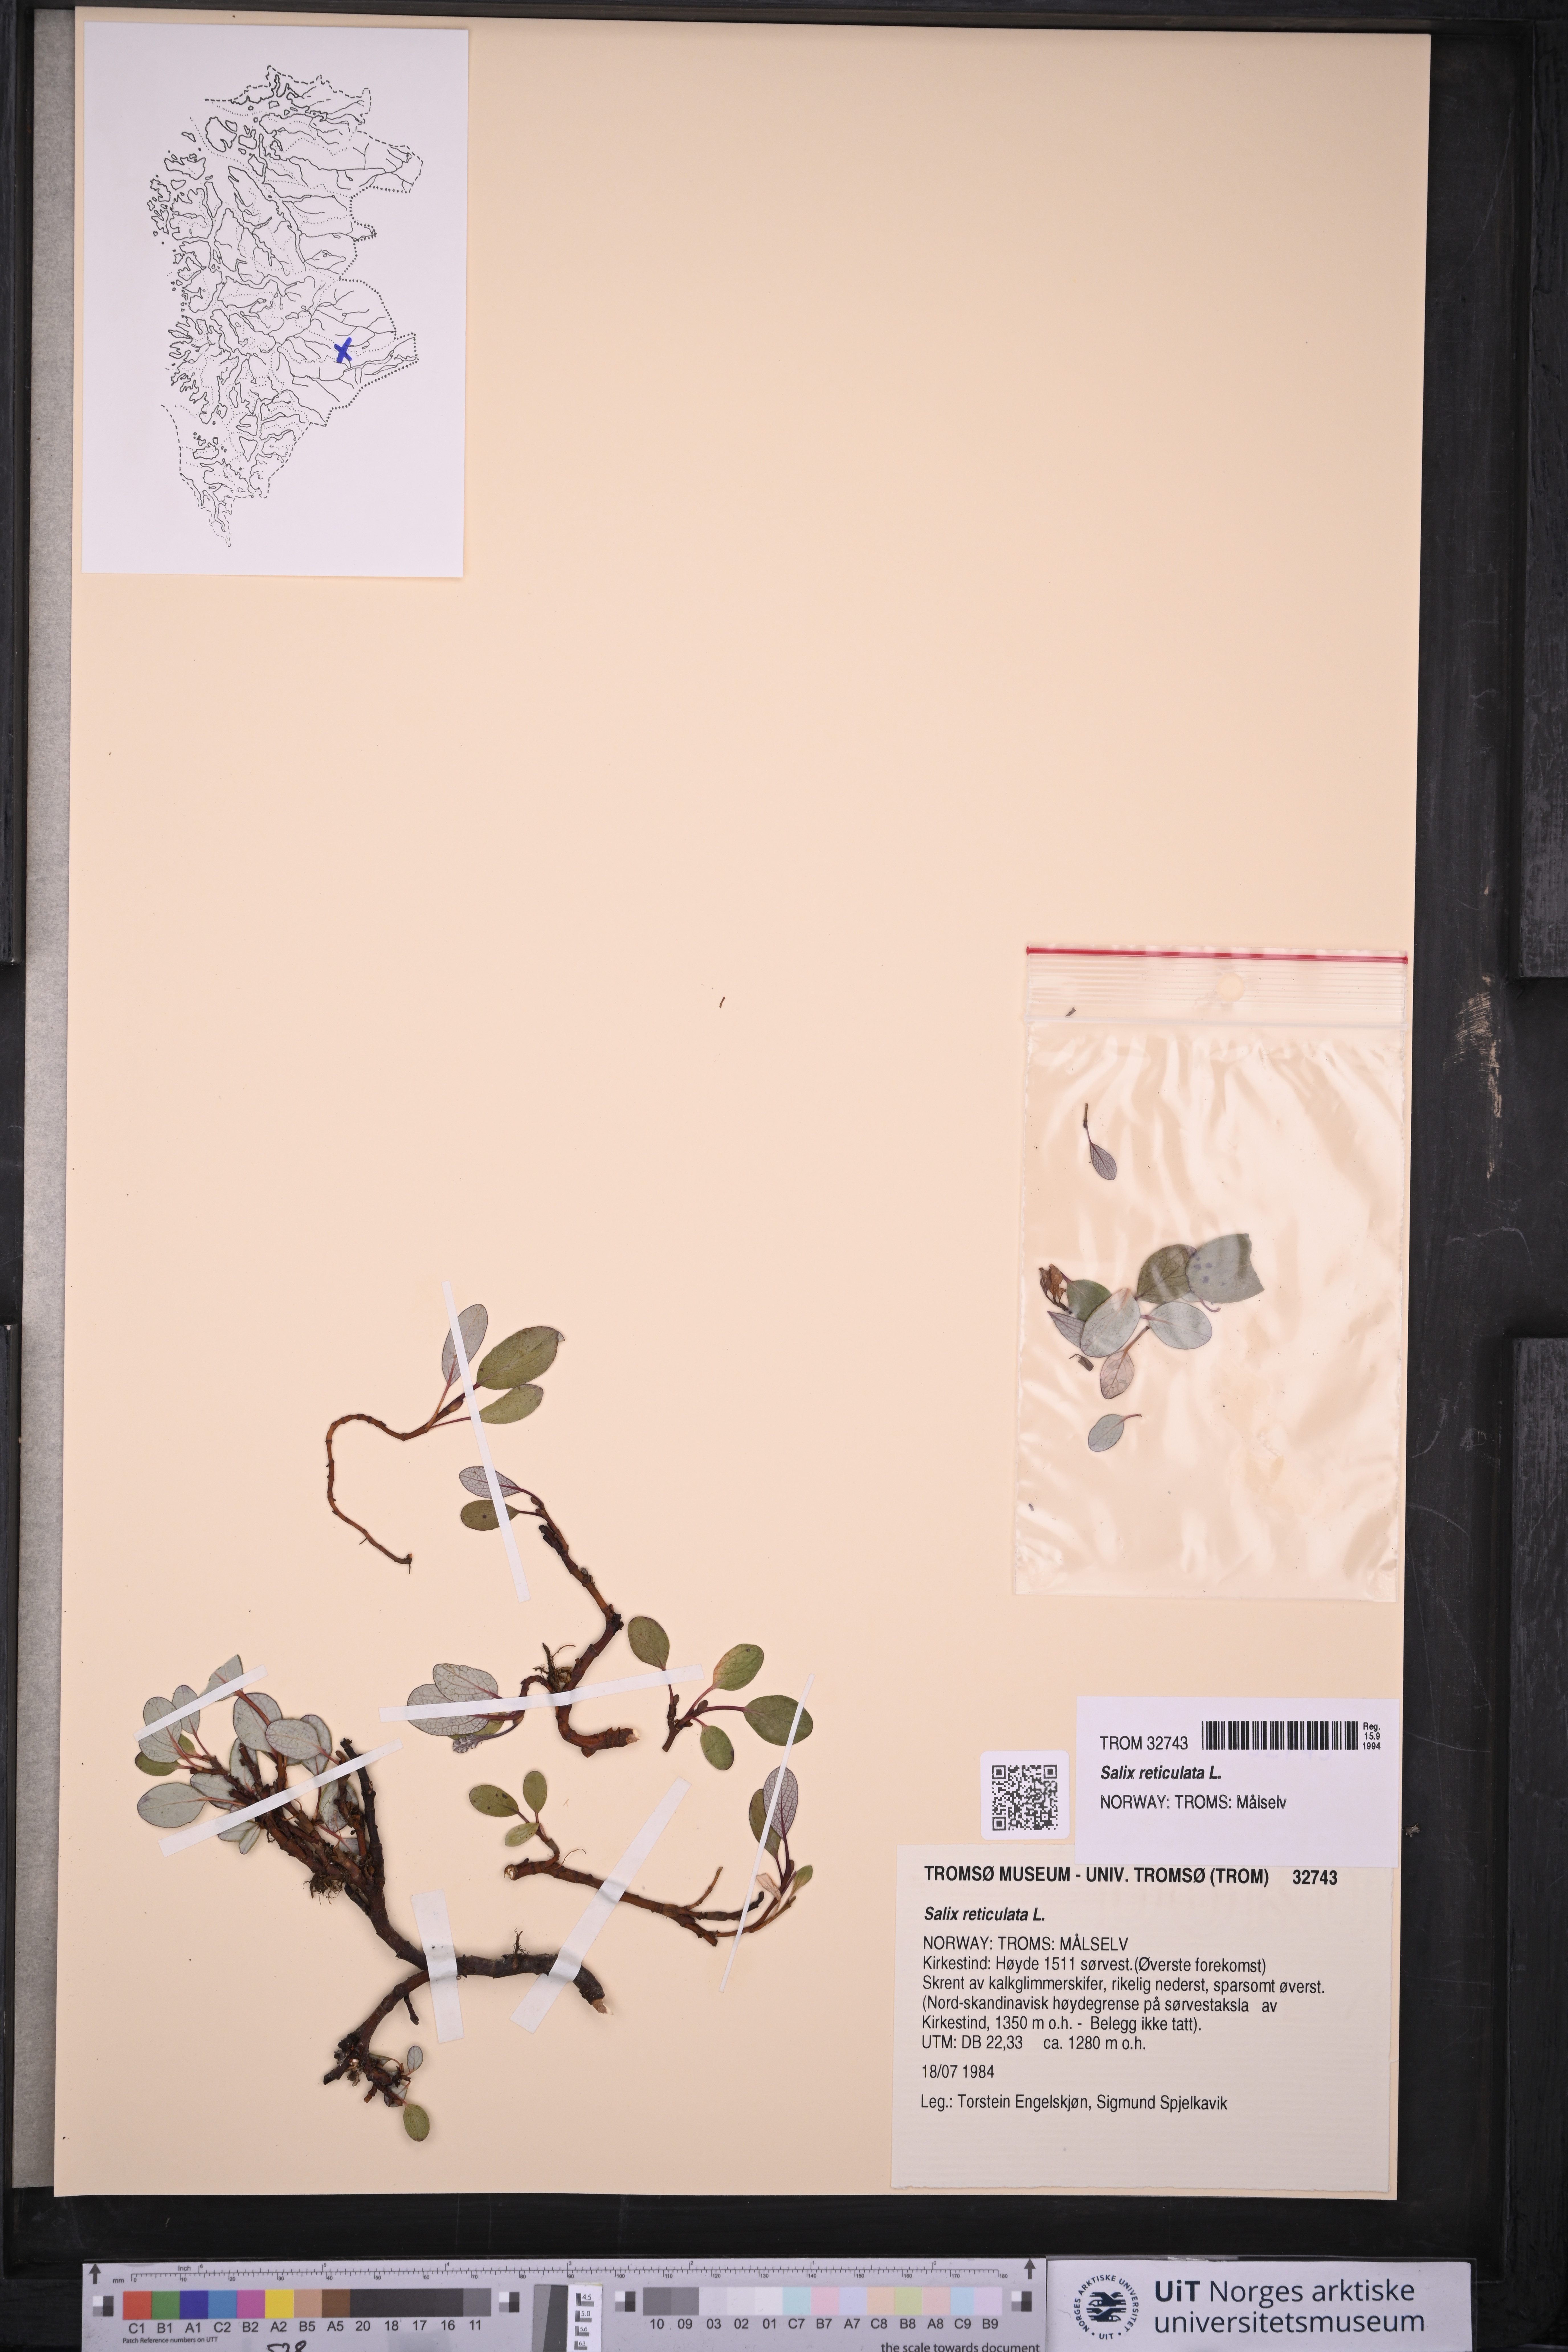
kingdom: Plantae
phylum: Tracheophyta
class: Magnoliopsida
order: Malpighiales
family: Salicaceae
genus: Salix
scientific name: Salix reticulata
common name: Net-leaved willow
